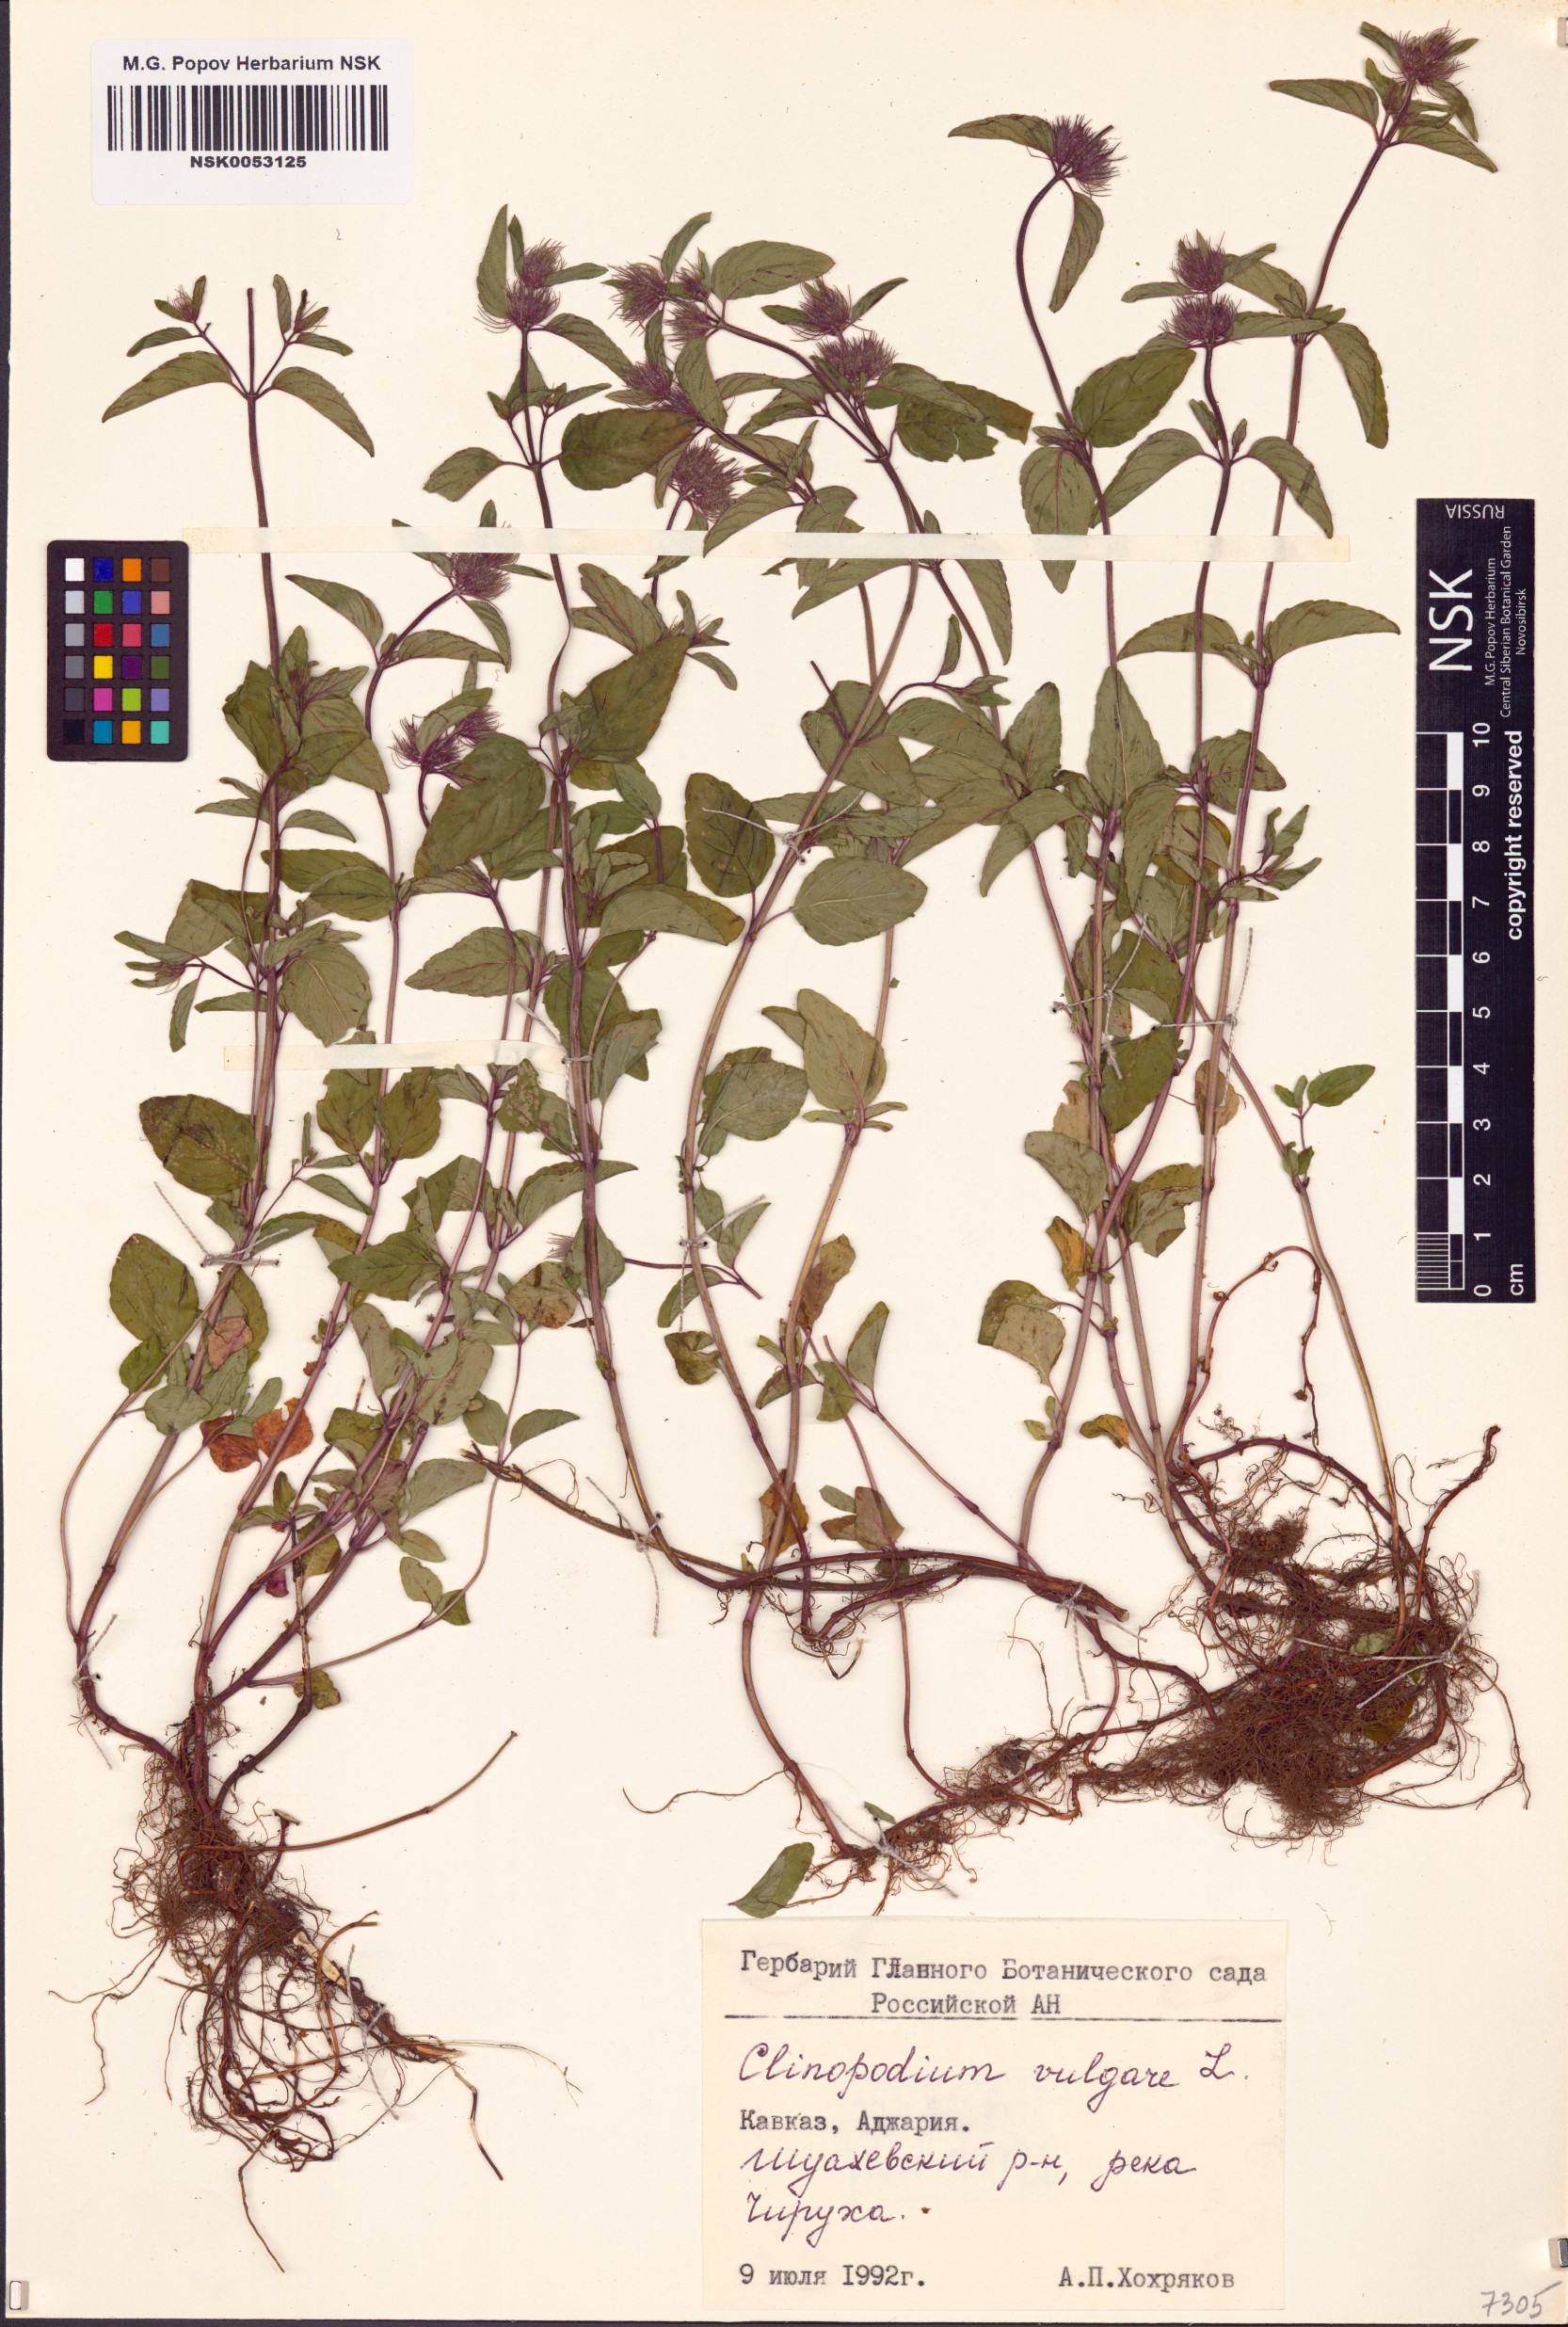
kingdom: Plantae
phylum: Tracheophyta
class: Magnoliopsida
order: Lamiales
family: Lamiaceae
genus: Clinopodium
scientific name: Clinopodium vulgare
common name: Wild basil
